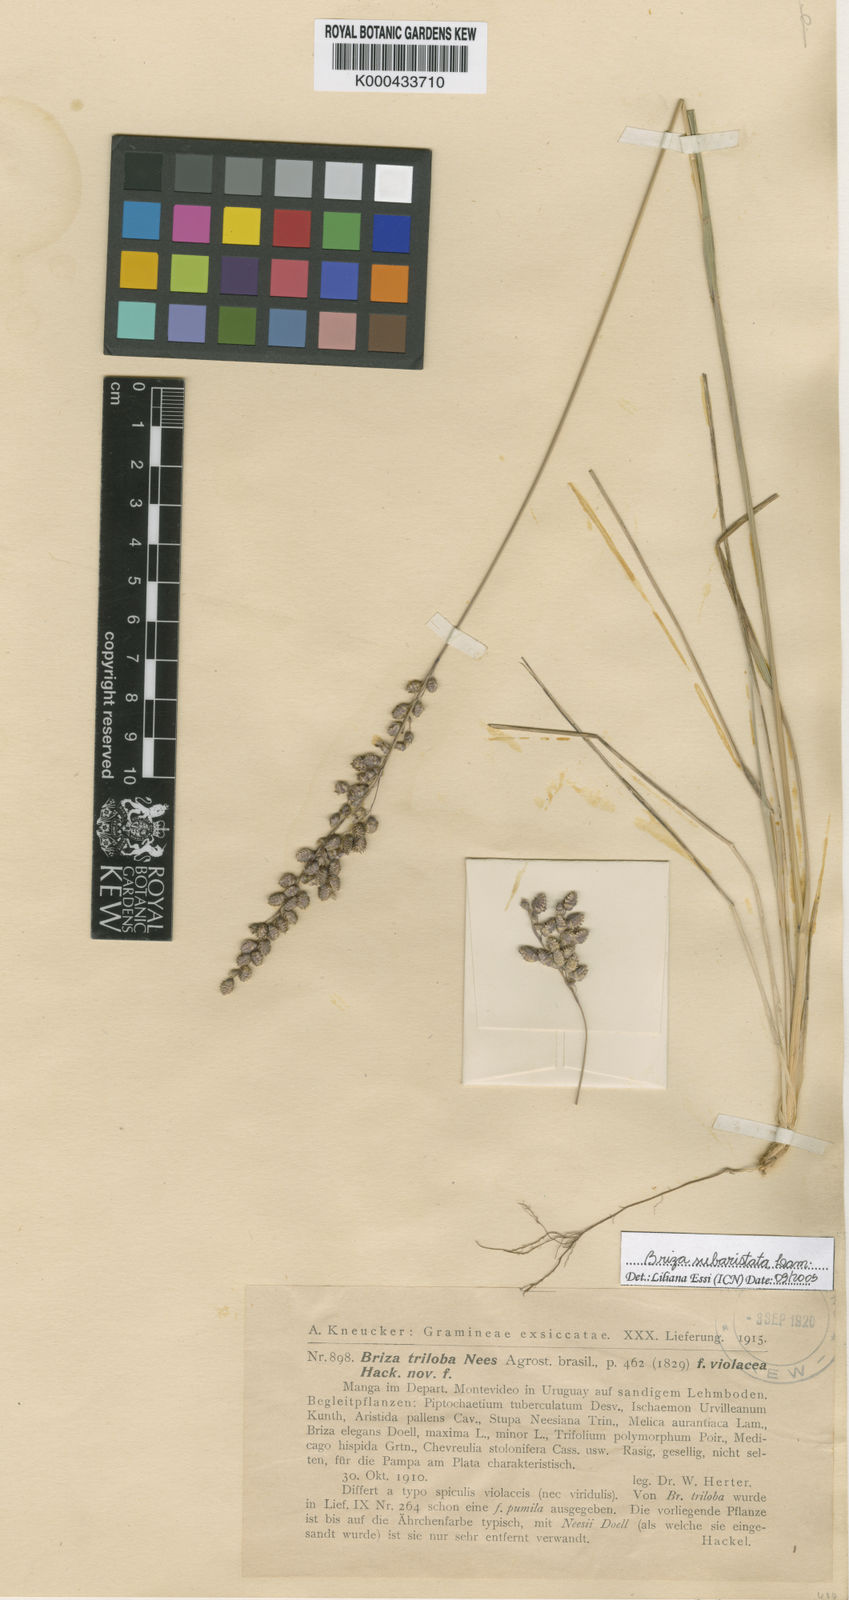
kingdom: Plantae
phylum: Tracheophyta
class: Liliopsida
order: Poales
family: Poaceae
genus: Chascolytrum
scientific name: Chascolytrum subaristatum
